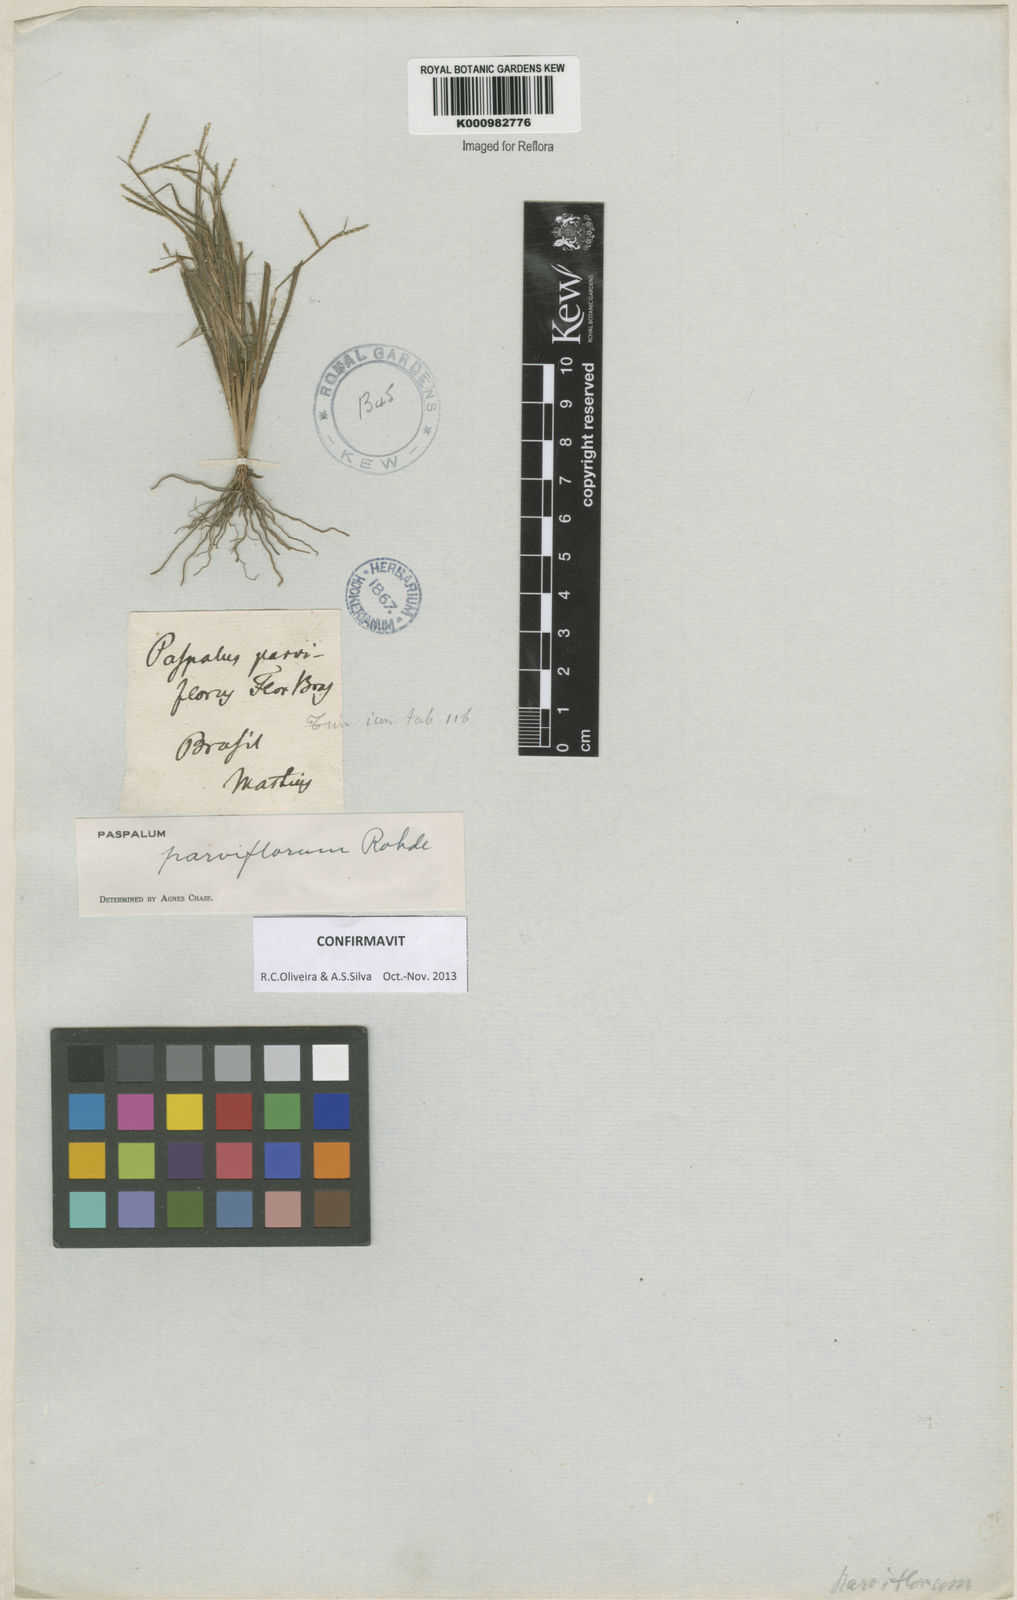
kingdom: Plantae
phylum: Tracheophyta
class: Liliopsida
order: Poales
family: Poaceae
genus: Paspalum
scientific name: Paspalum
